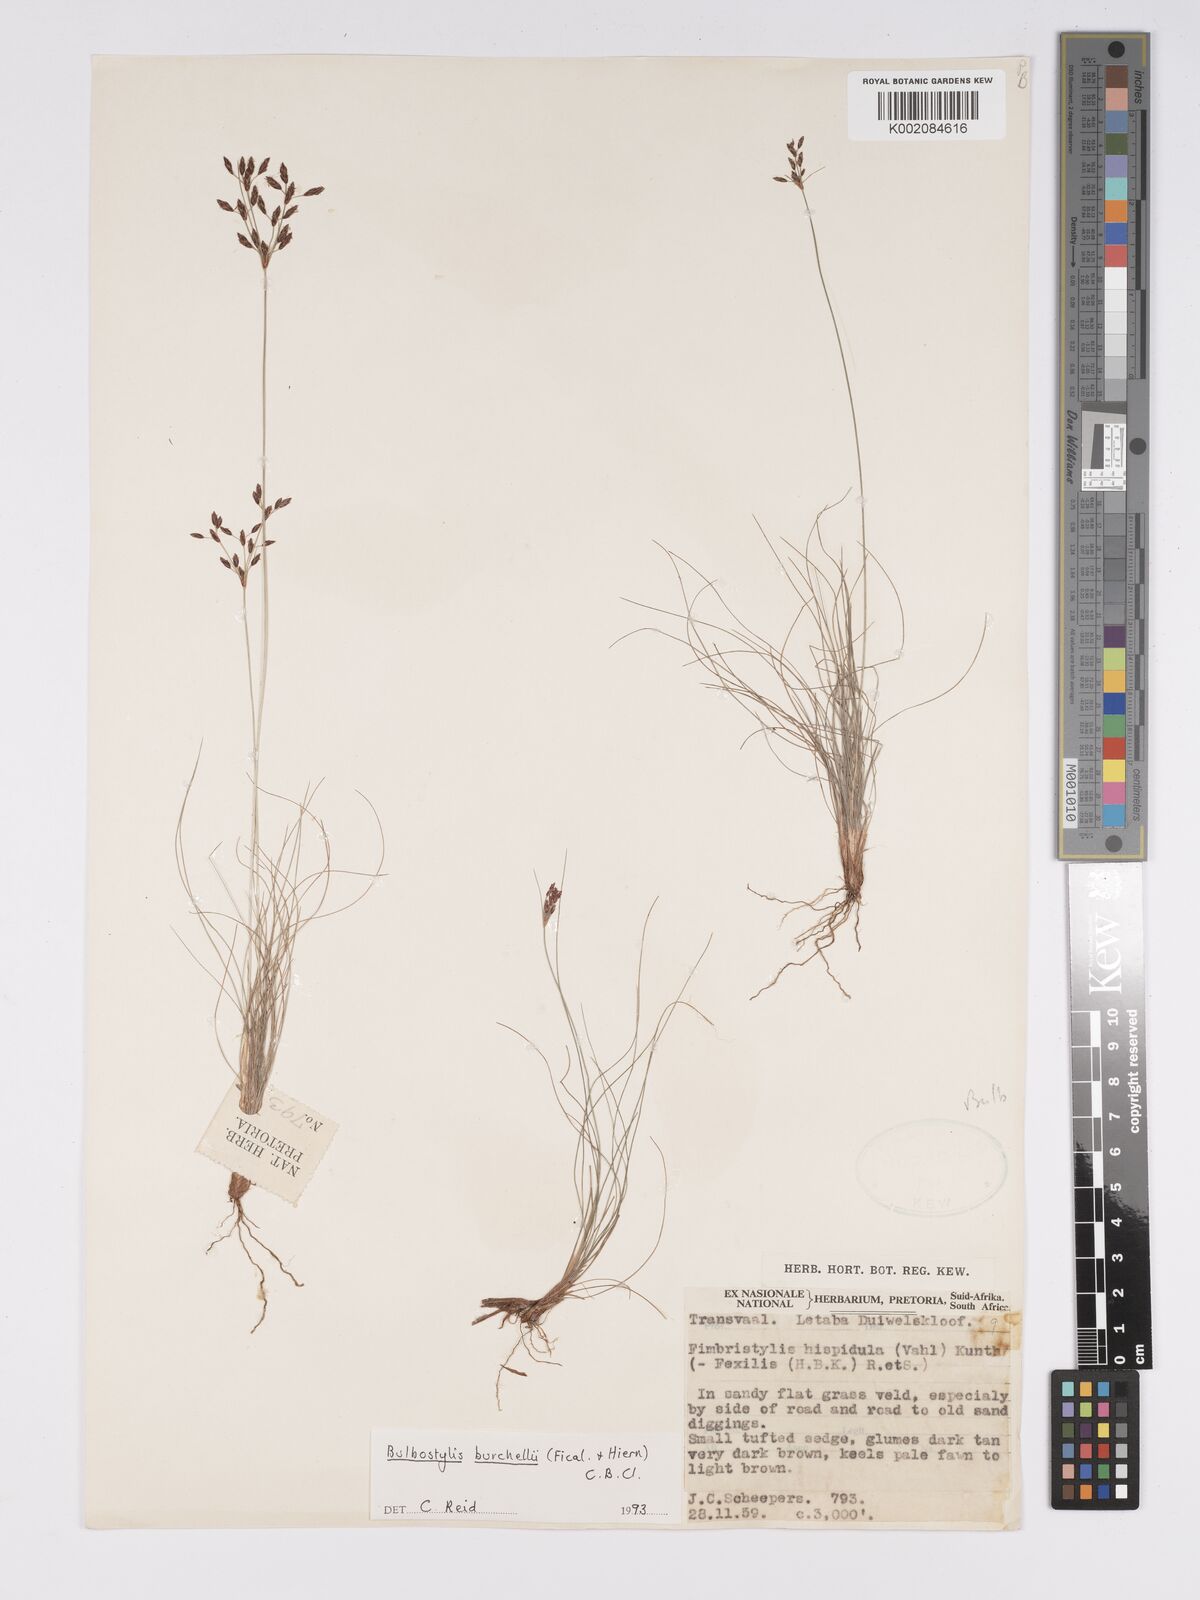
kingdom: Plantae
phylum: Tracheophyta
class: Liliopsida
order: Poales
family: Cyperaceae
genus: Bulbostylis
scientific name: Bulbostylis burchellii
